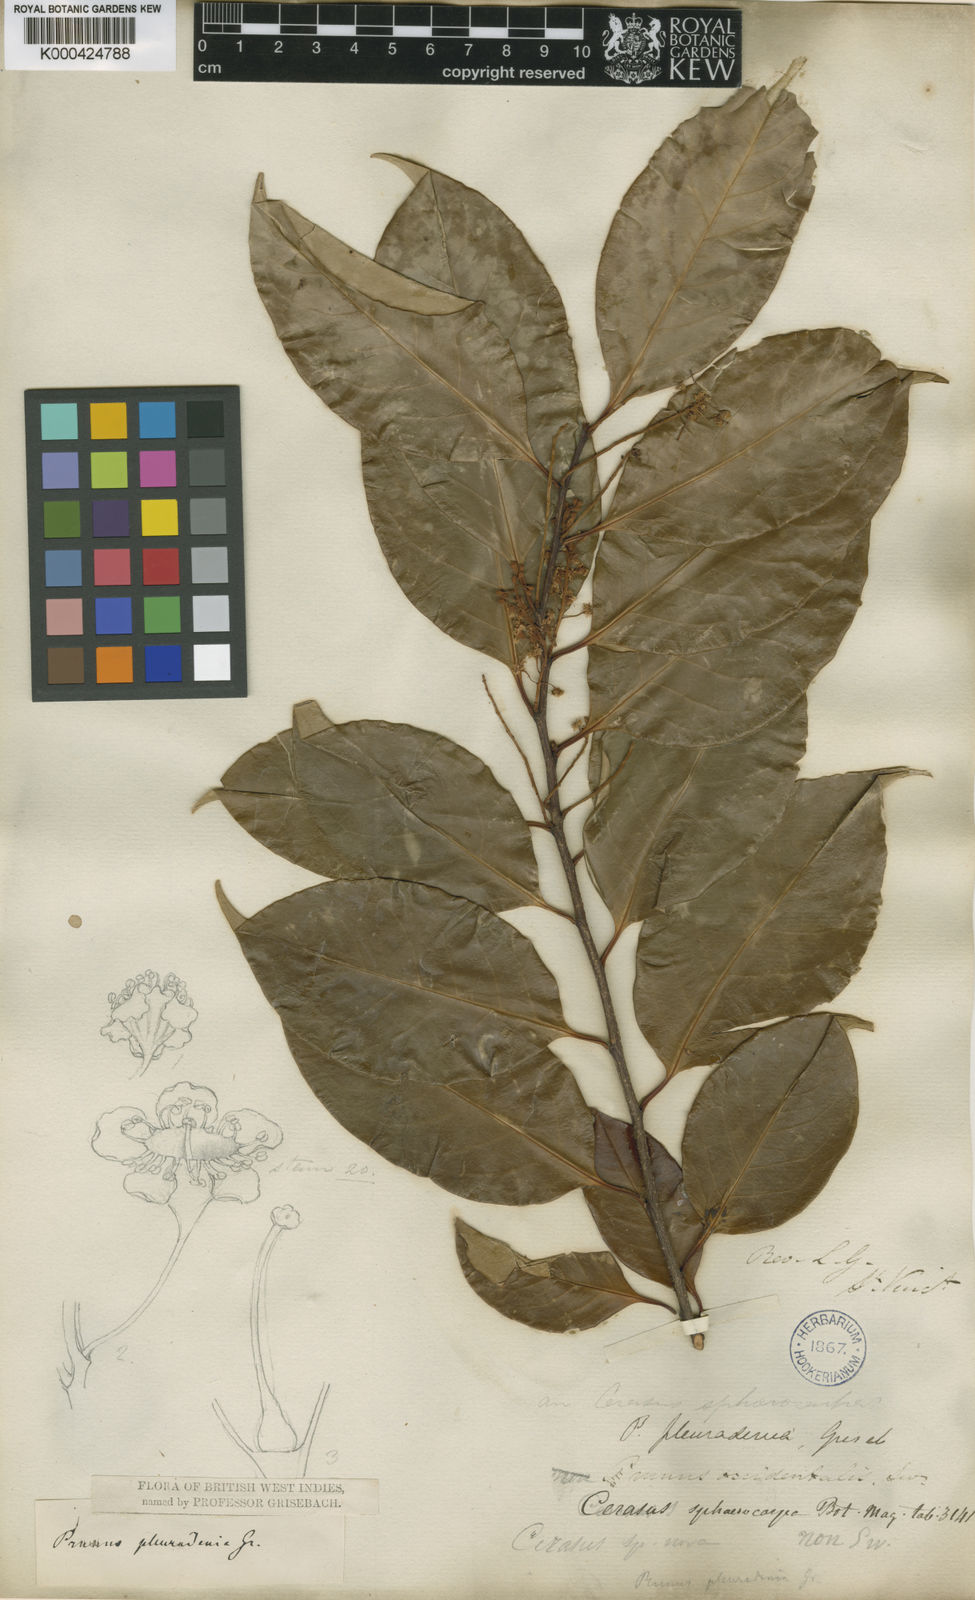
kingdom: Plantae
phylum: Tracheophyta
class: Magnoliopsida
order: Rosales
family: Rosaceae
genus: Prunus
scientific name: Prunus pleuradenia
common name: Antilles cherry
